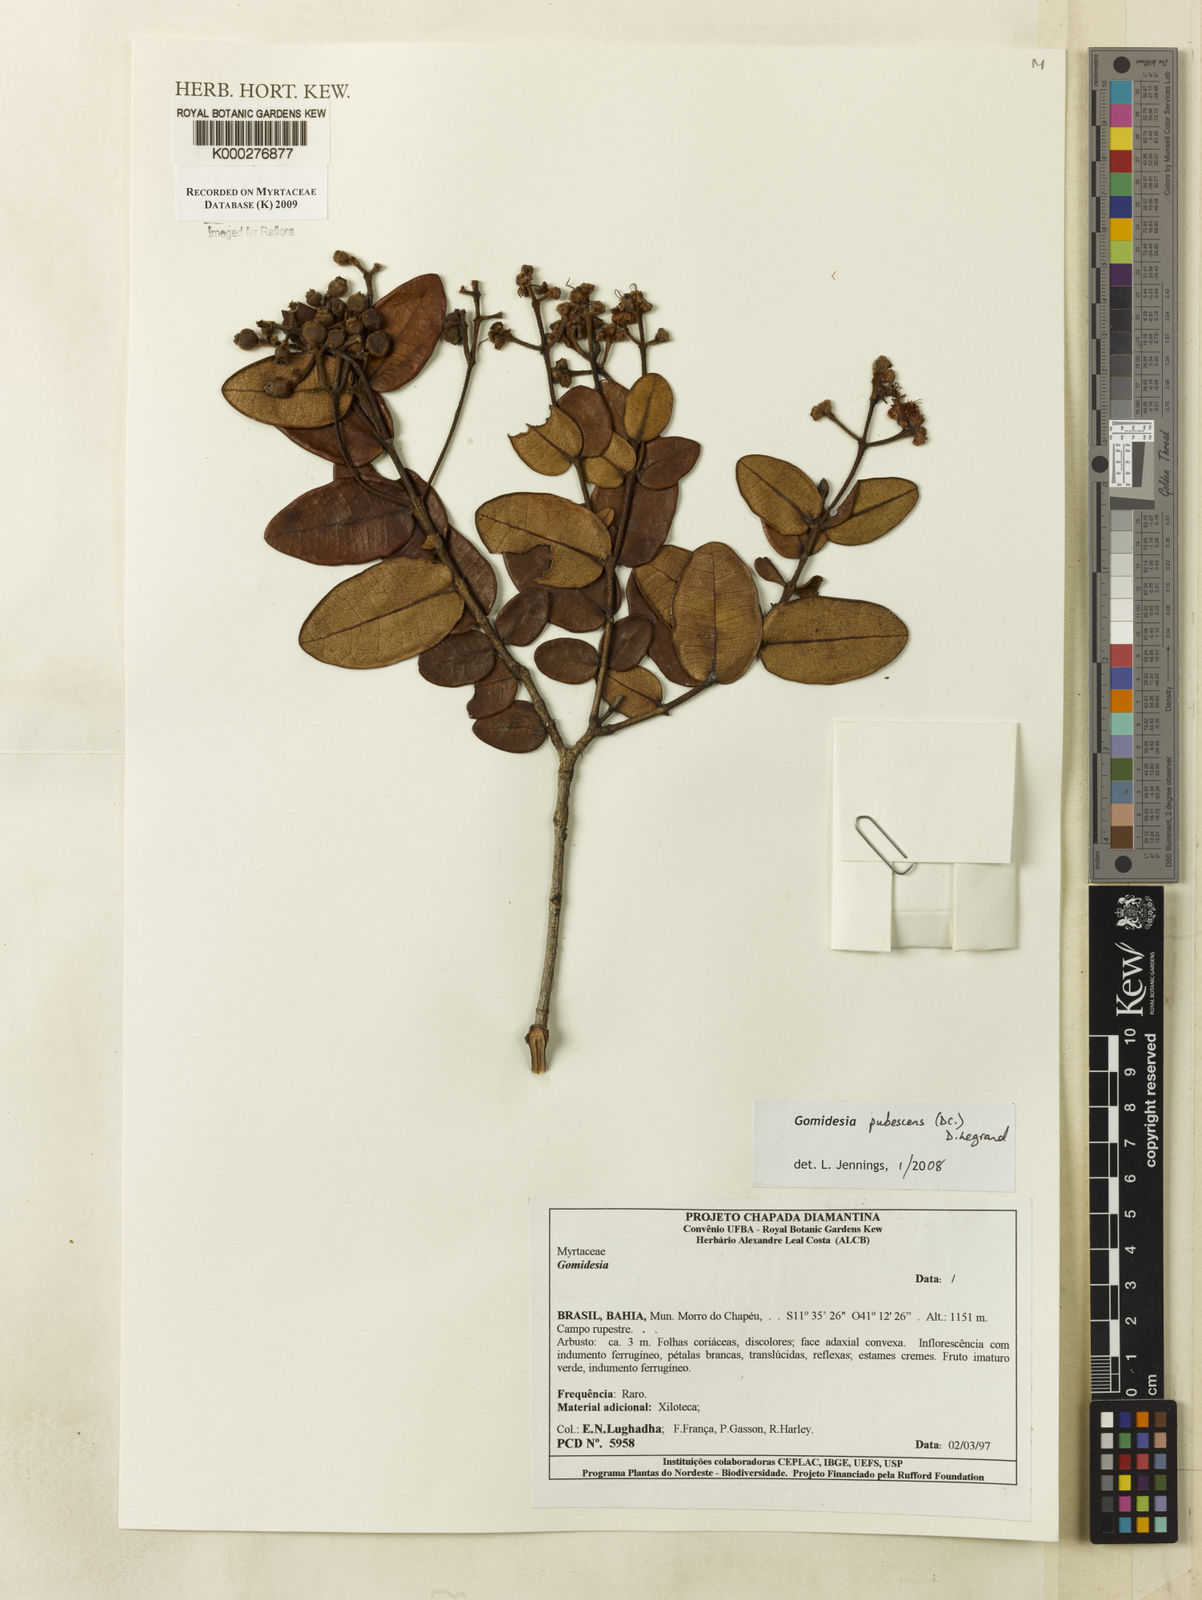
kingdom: Plantae
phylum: Tracheophyta
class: Magnoliopsida
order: Myrtales
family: Myrtaceae
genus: Myrcia
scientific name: Myrcia pubescens
